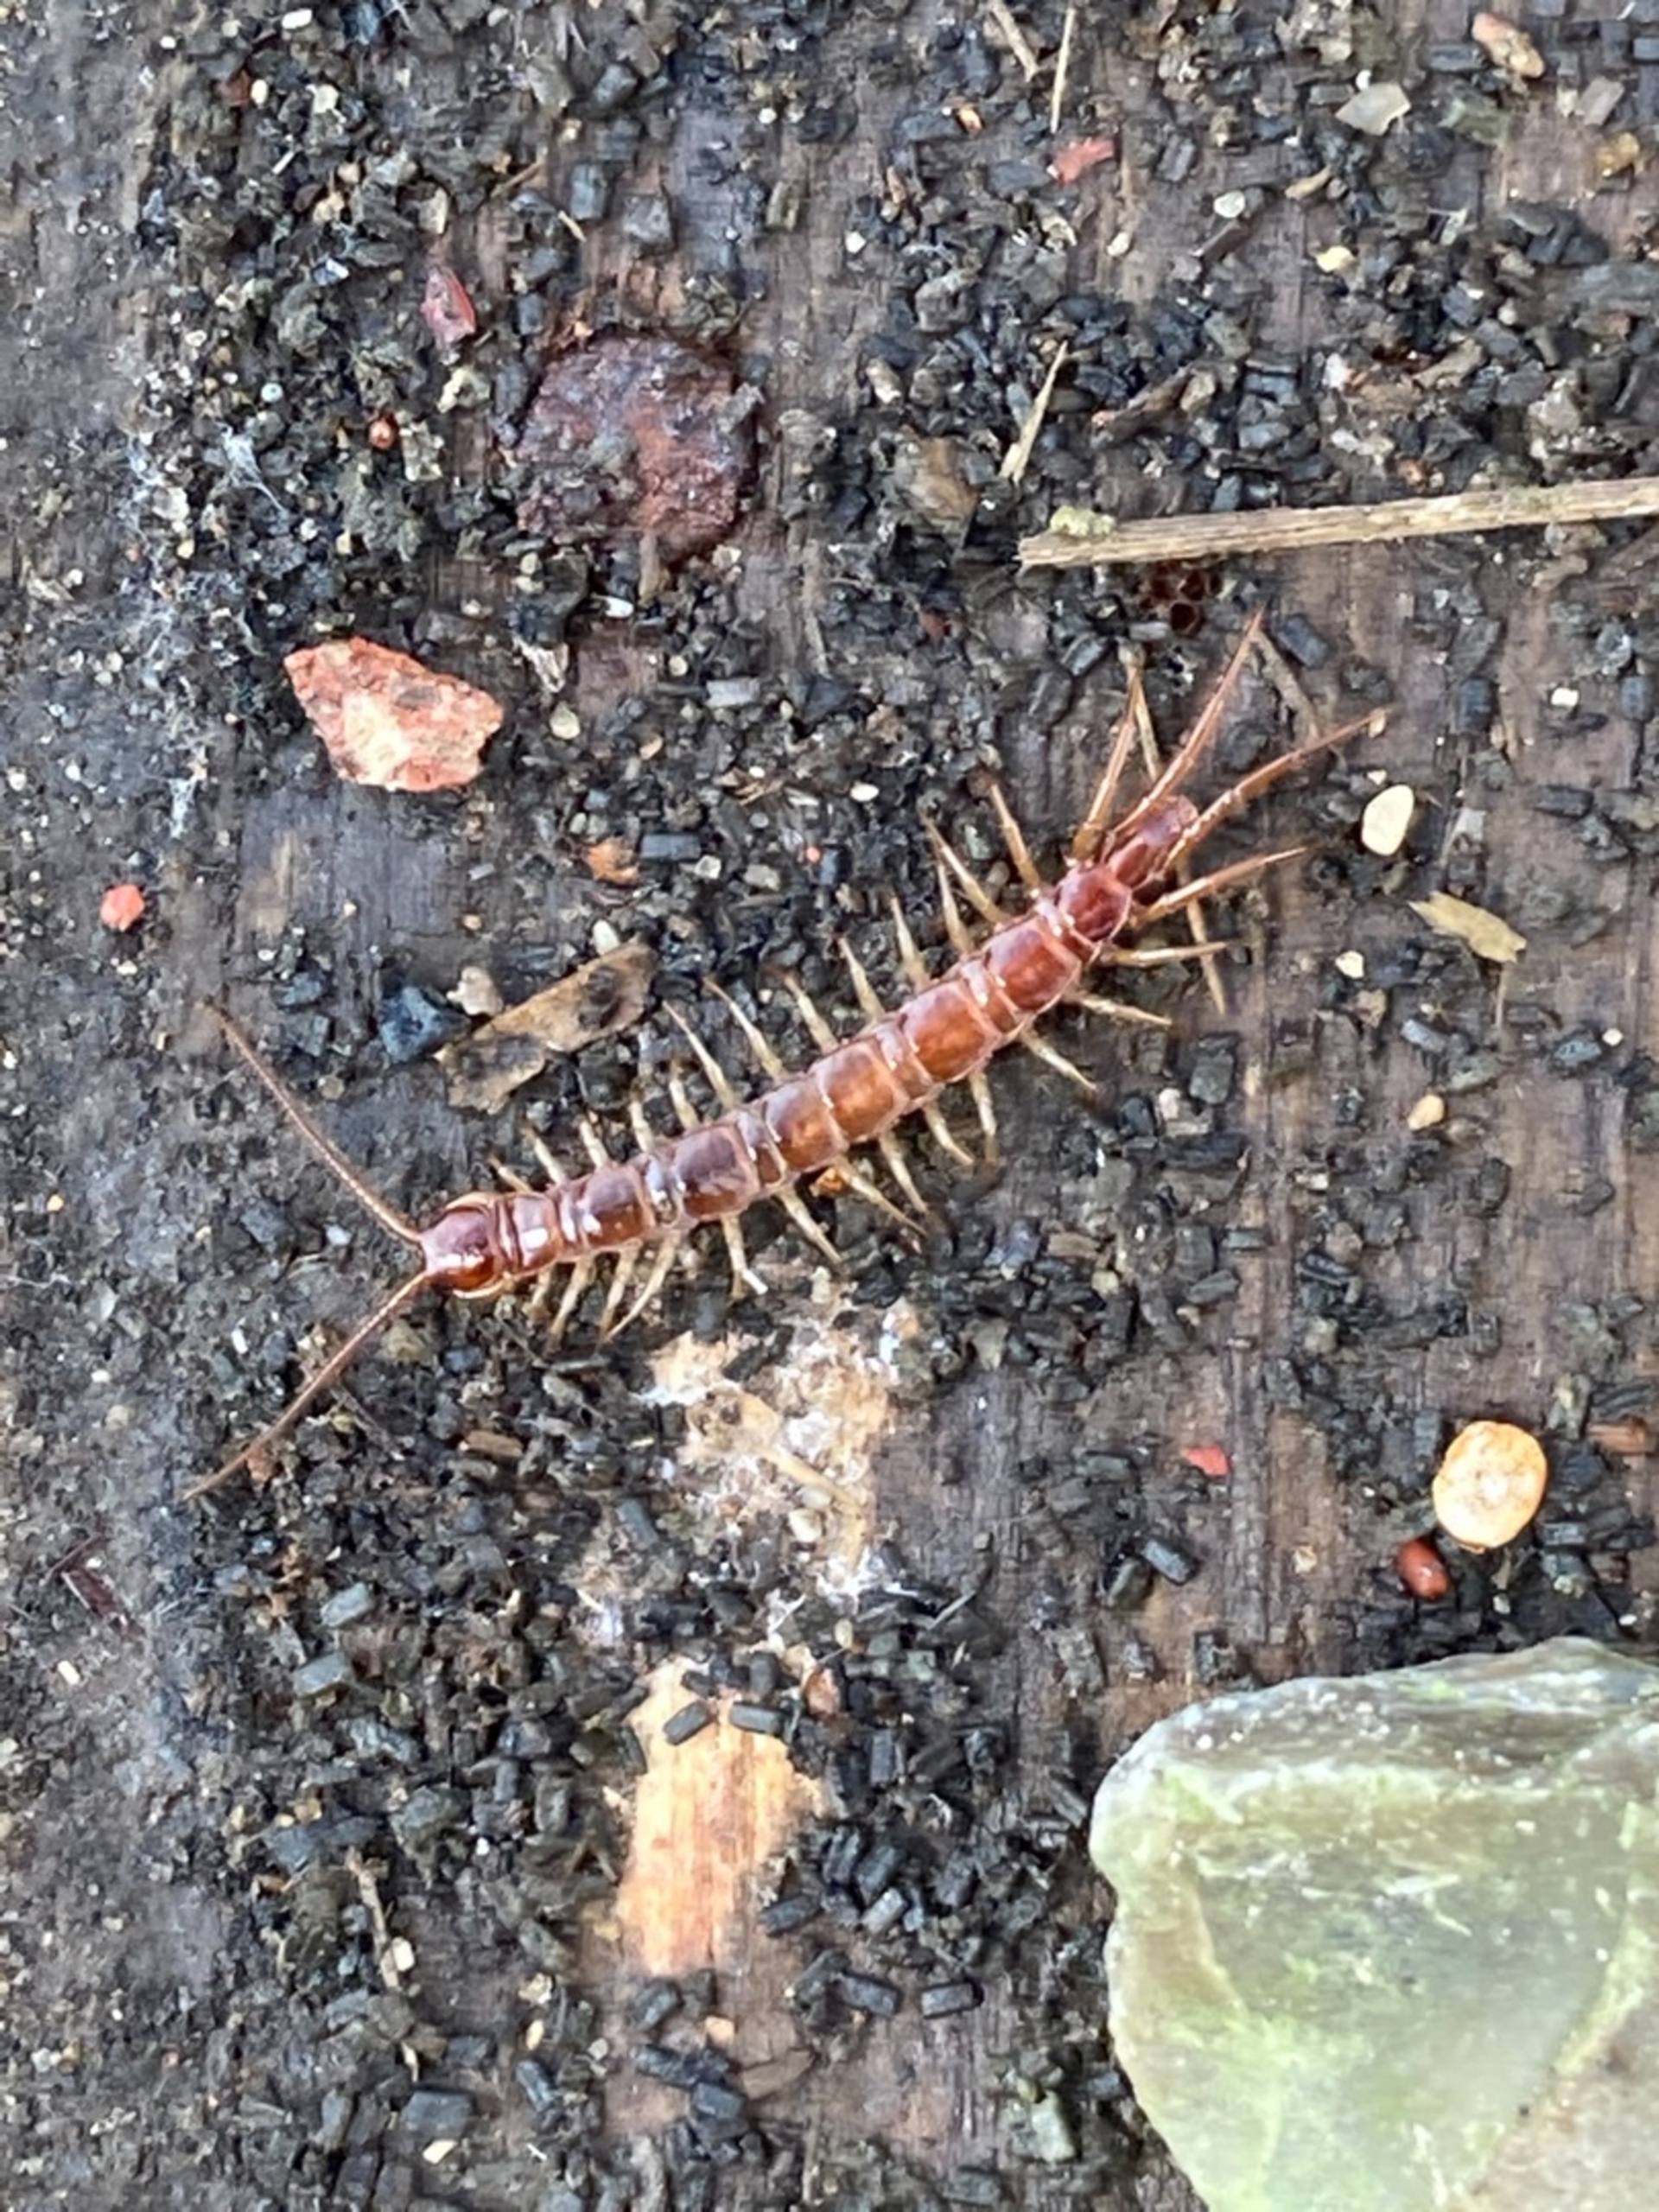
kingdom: Animalia
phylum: Arthropoda
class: Chilopoda
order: Lithobiomorpha
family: Lithobiidae
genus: Lithobius
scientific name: Lithobius forficatus
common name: Stenskolopender
